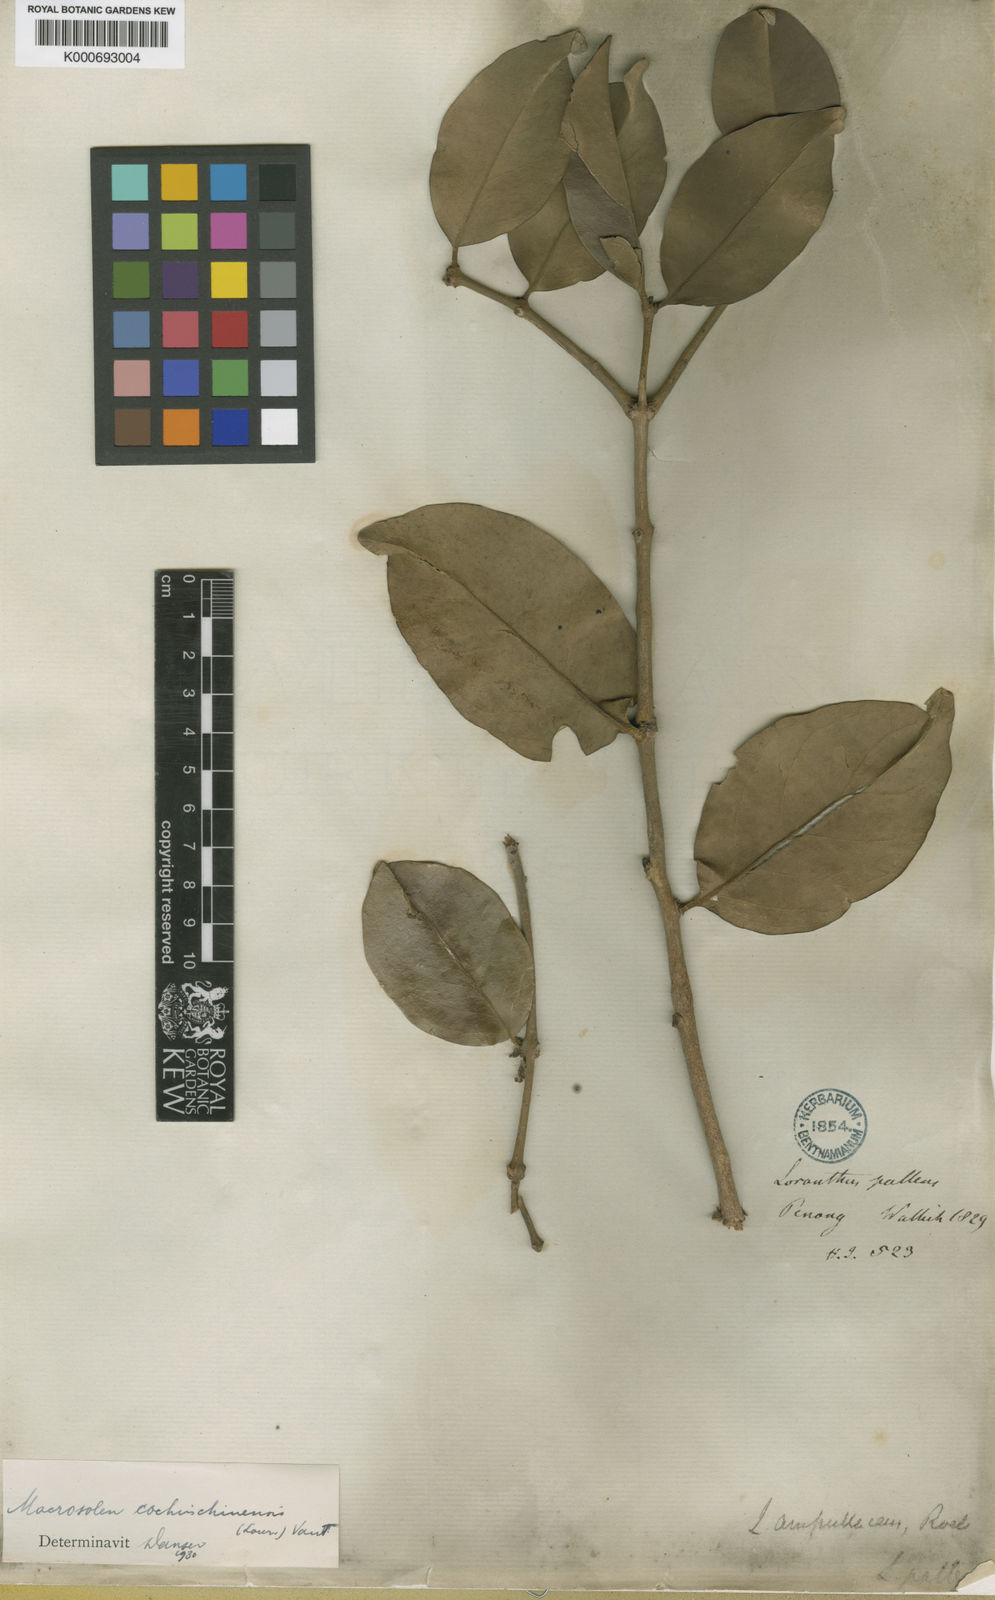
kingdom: Plantae
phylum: Tracheophyta
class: Magnoliopsida
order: Santalales
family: Loranthaceae
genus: Macrosolen
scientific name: Macrosolen cochinchinensis
